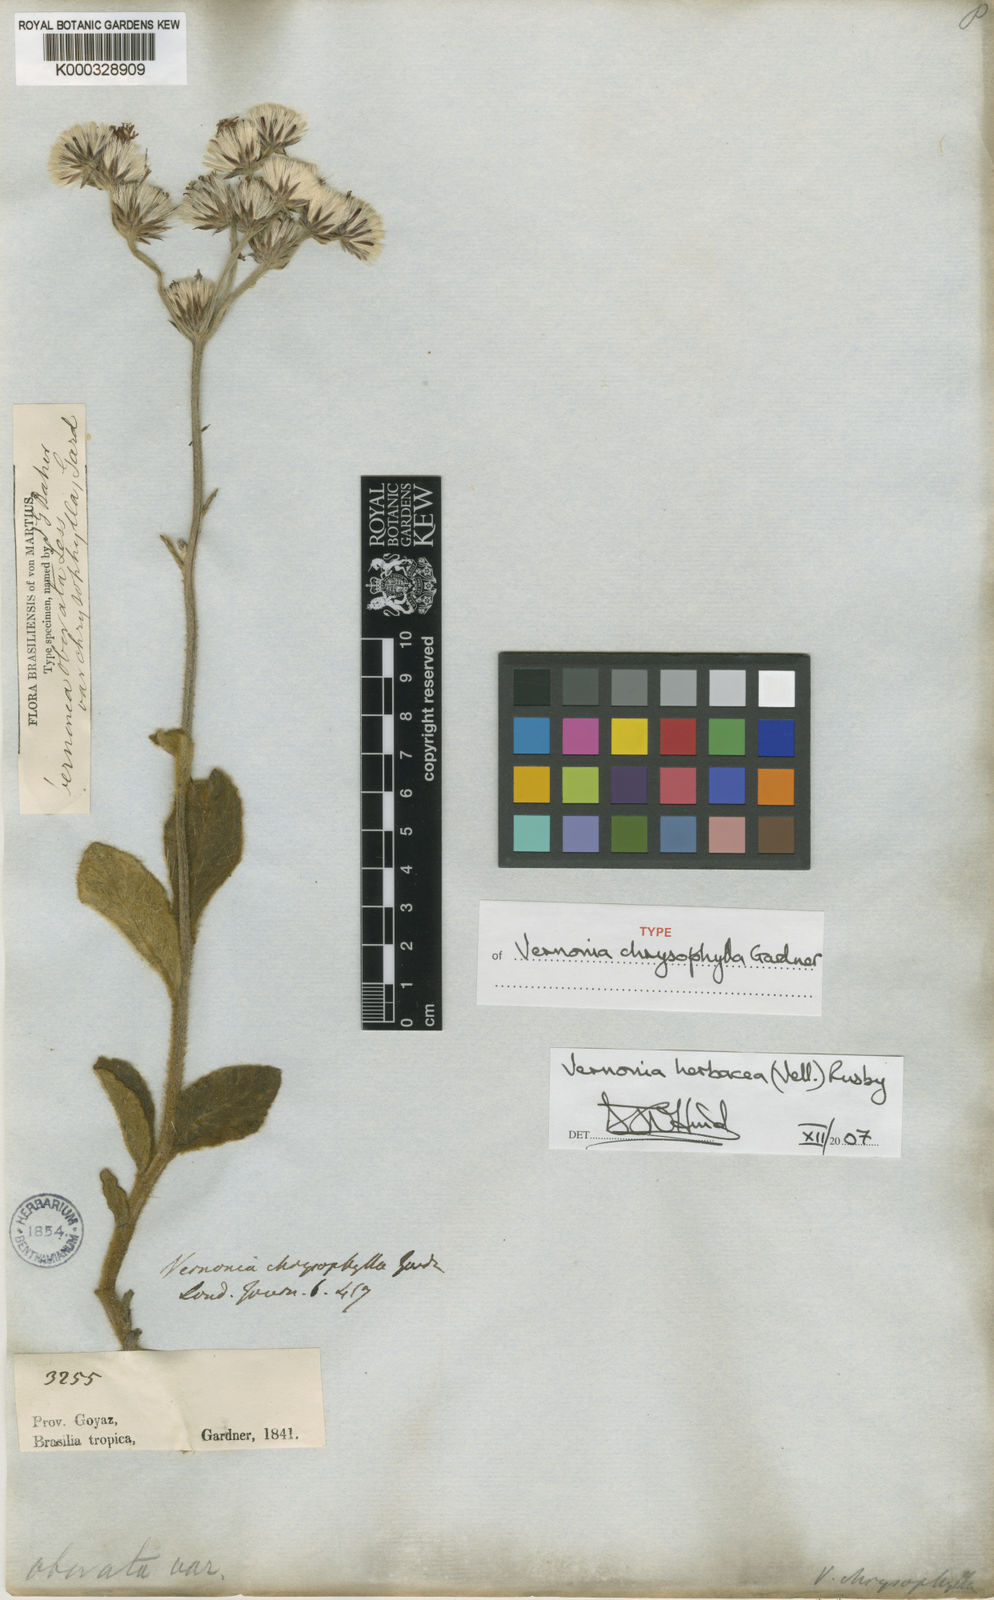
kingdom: Plantae
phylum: Tracheophyta
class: Magnoliopsida
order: Asterales
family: Asteraceae
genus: Chrysolaena
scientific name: Chrysolaena obovata
